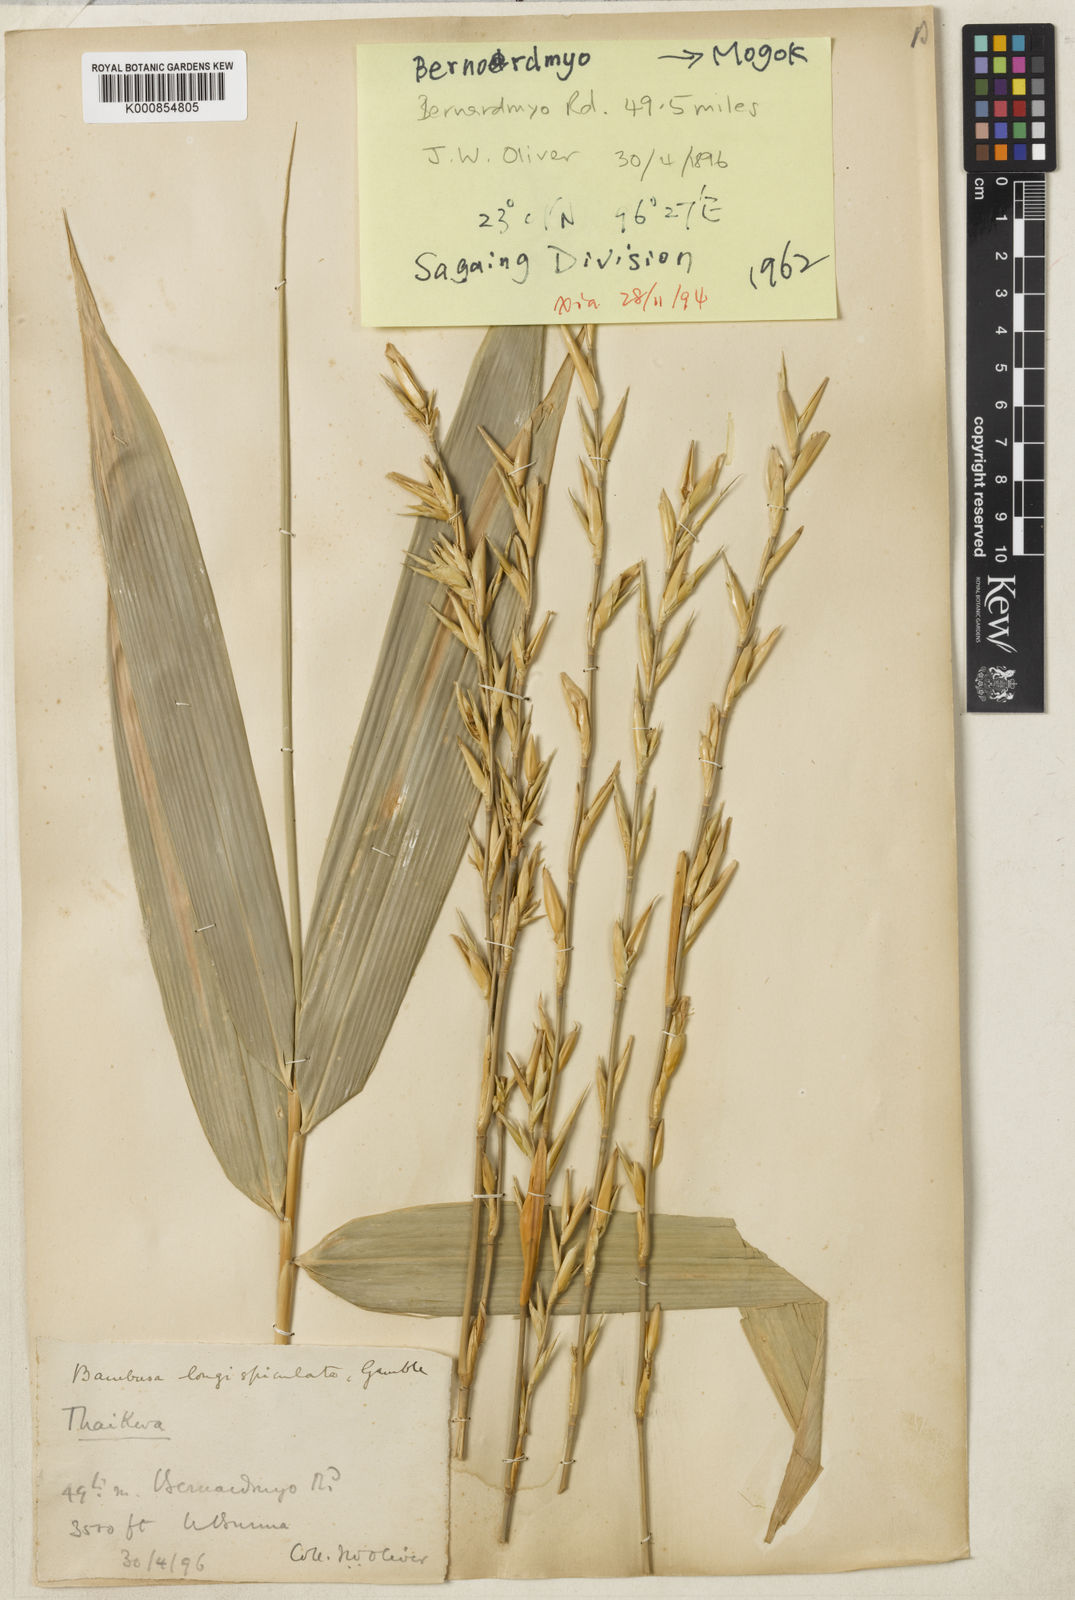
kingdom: Plantae
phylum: Tracheophyta
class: Liliopsida
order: Poales
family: Poaceae
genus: Bambusa
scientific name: Bambusa
